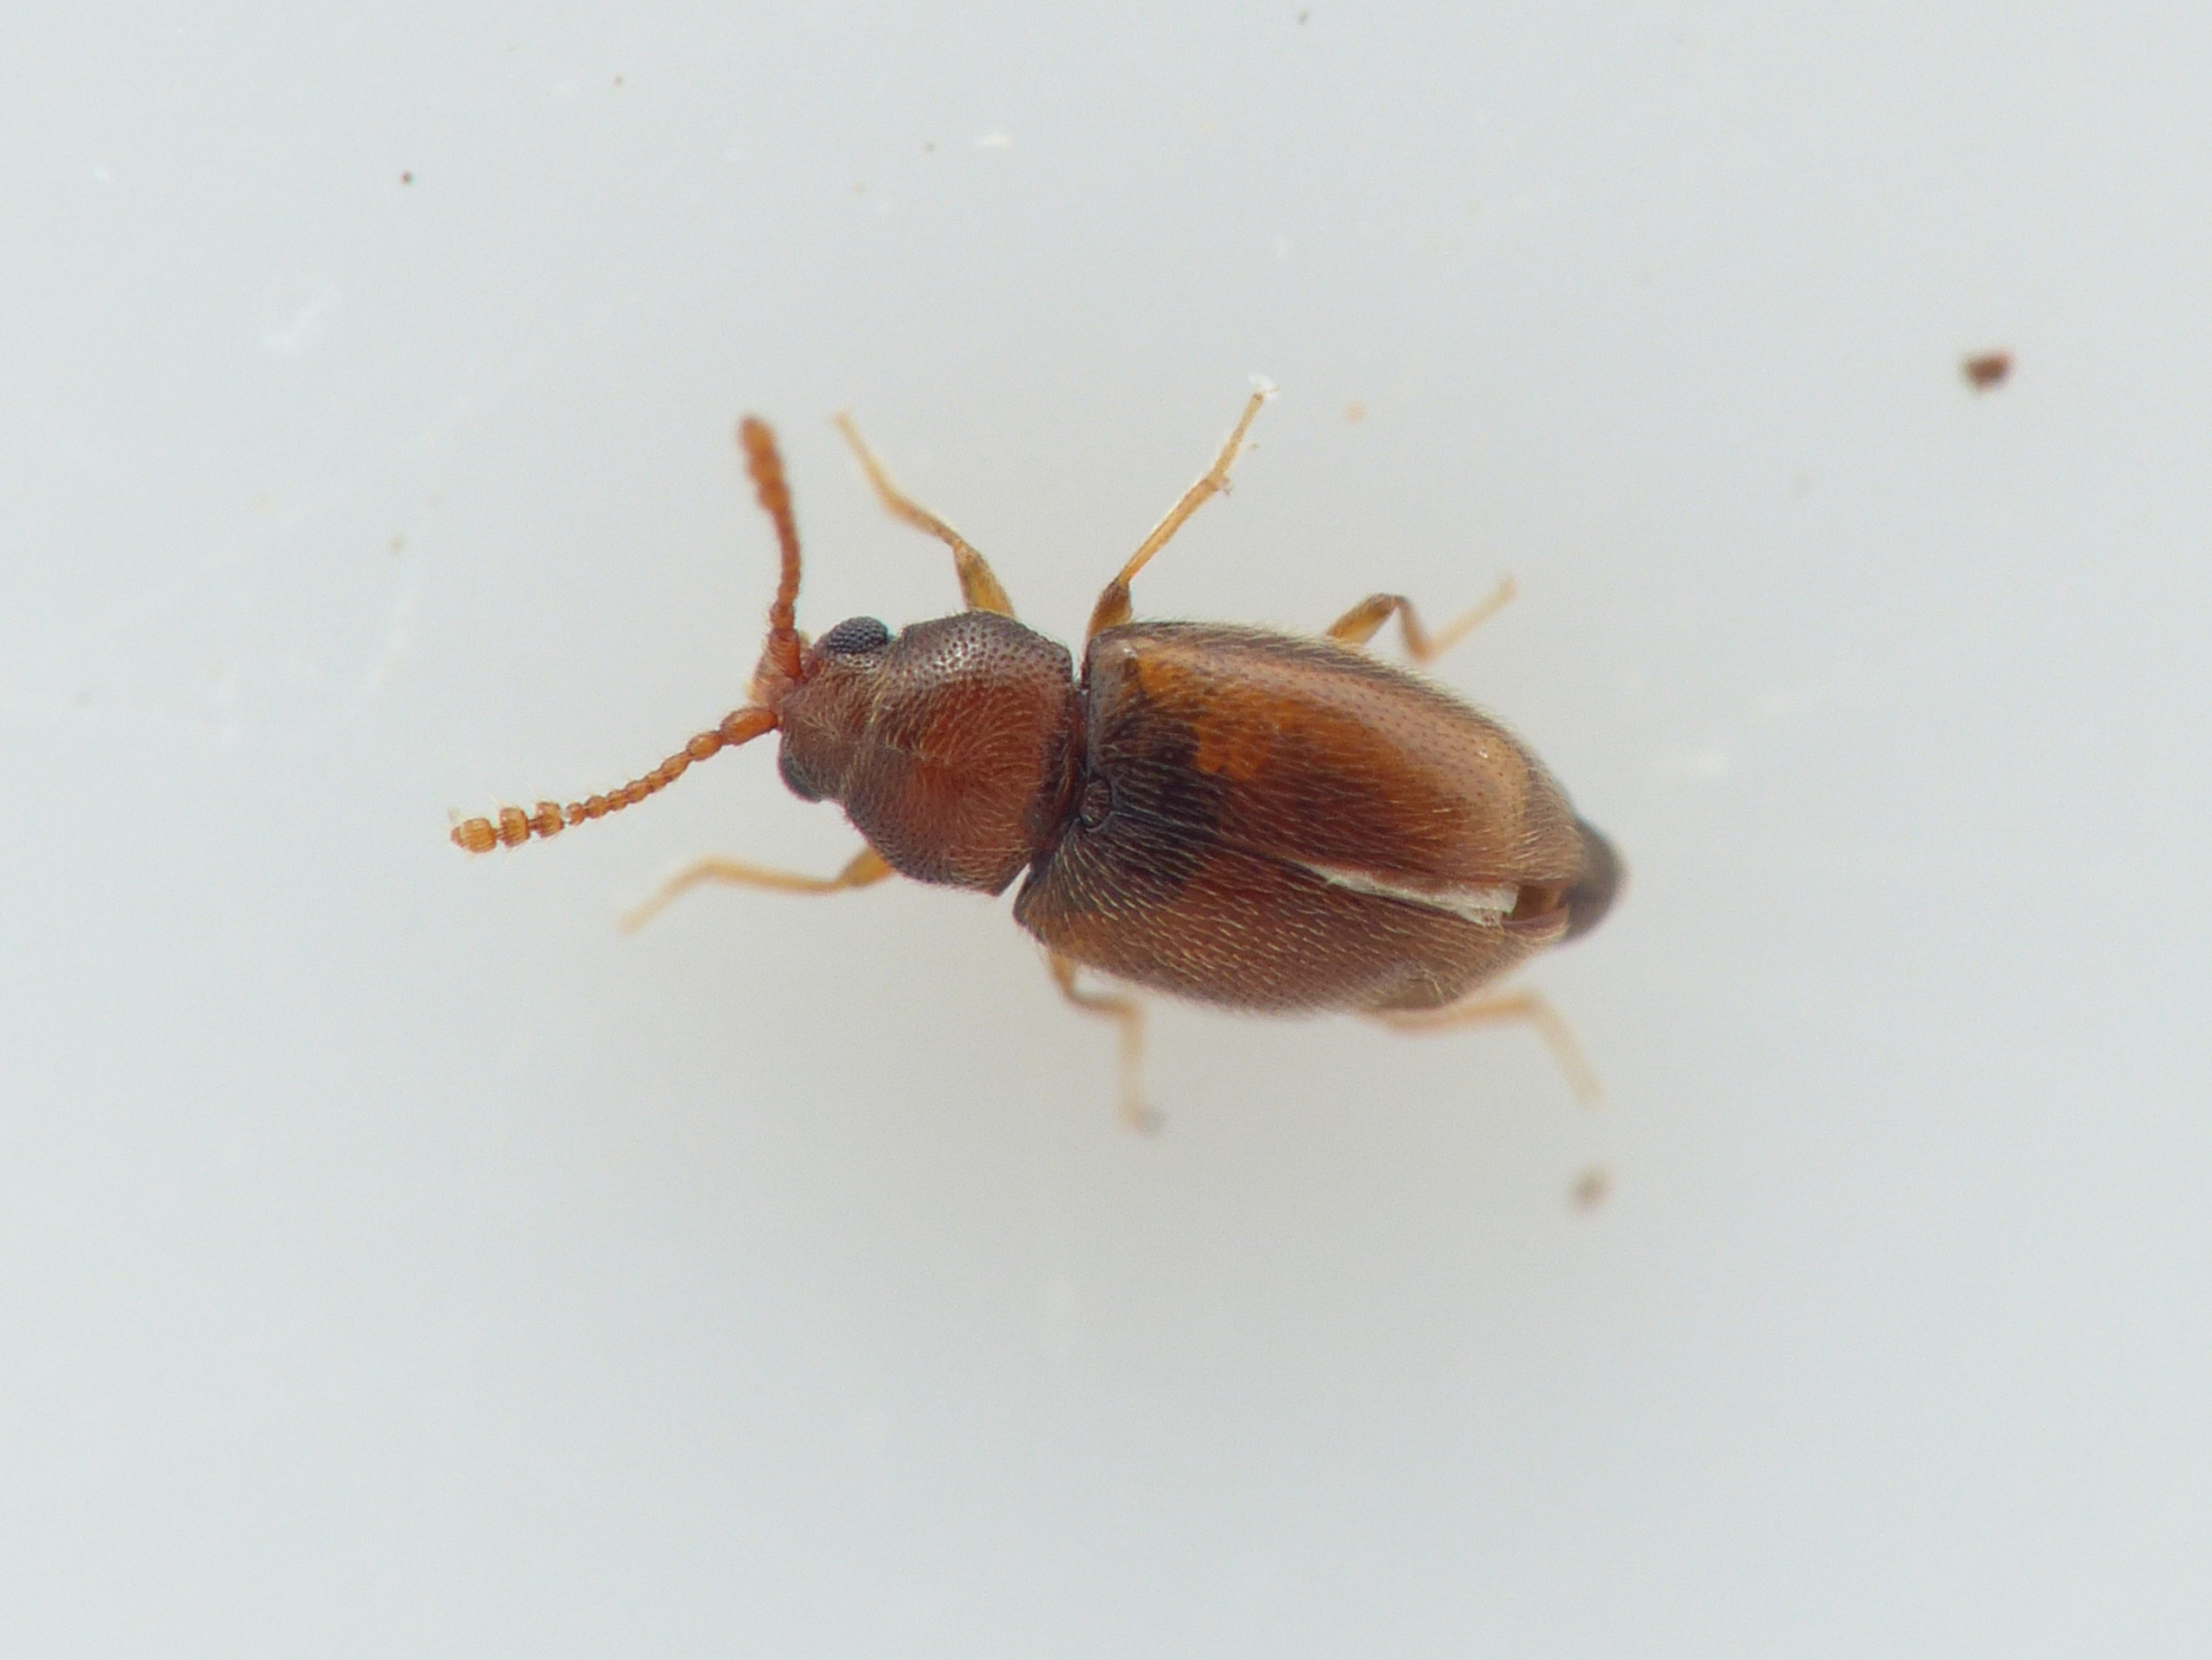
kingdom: Animalia
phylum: Arthropoda
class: Insecta
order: Coleoptera
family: Cryptophagidae
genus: Atomaria
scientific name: Atomaria lewisi
